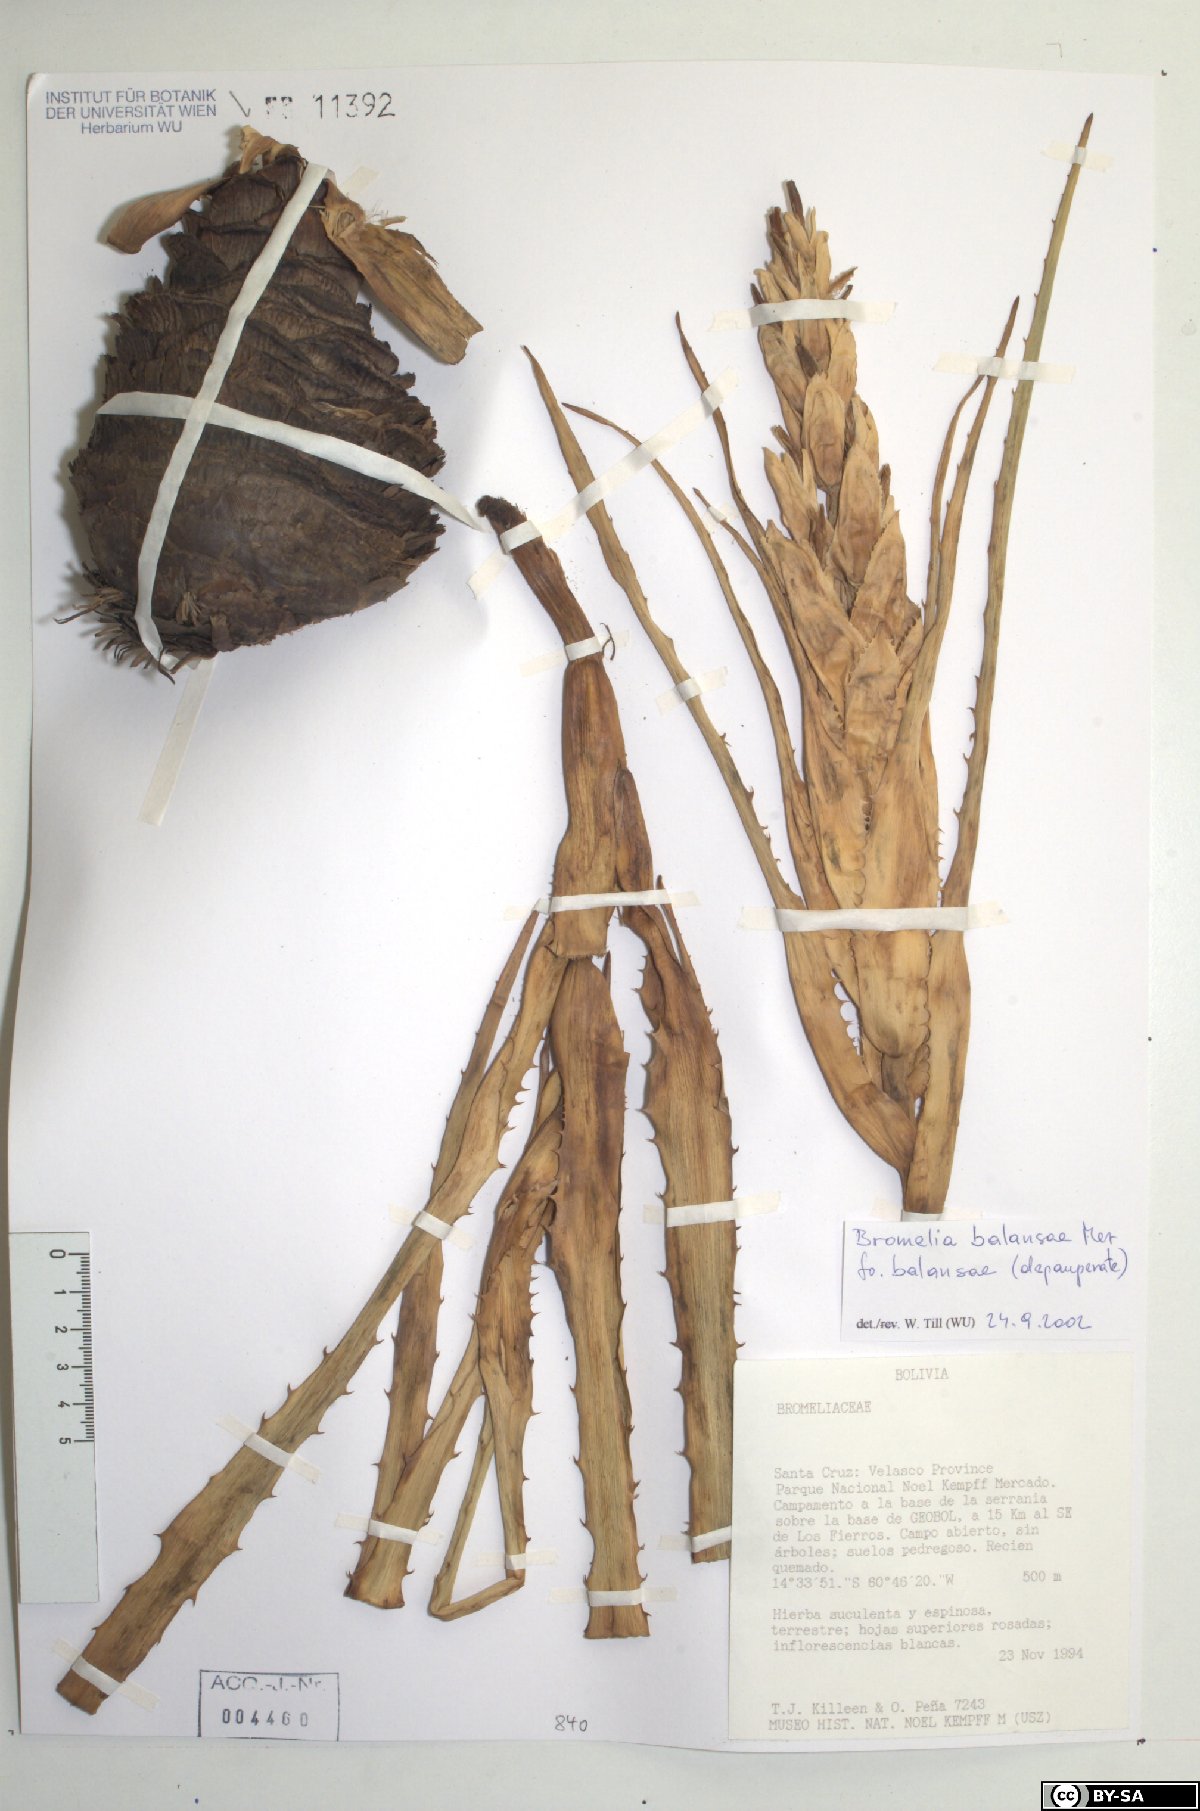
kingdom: Plantae
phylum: Tracheophyta
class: Liliopsida
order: Poales
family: Bromeliaceae
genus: Bromelia
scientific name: Bromelia balansae
